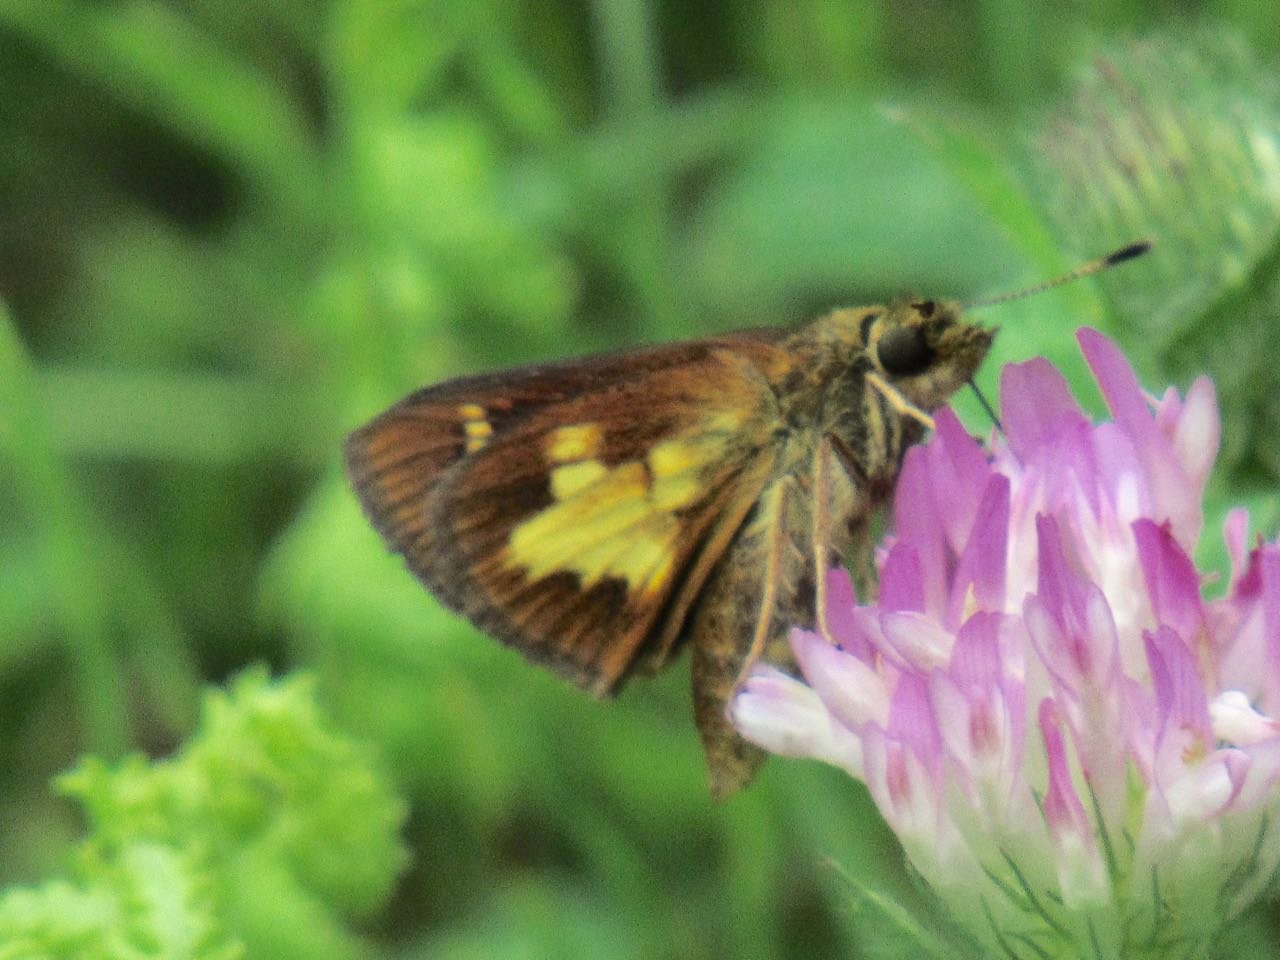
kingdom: Animalia
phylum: Arthropoda
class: Insecta
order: Lepidoptera
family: Hesperiidae
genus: Poanes
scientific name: Poanes massasoit
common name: Mulberry Wing
